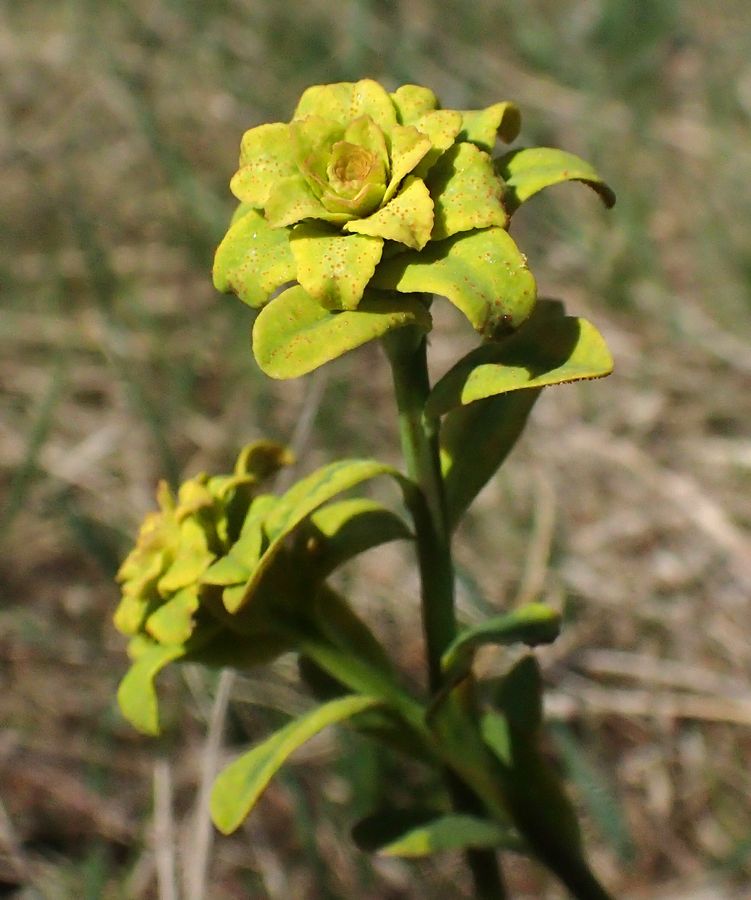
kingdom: Plantae
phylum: Tracheophyta
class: Magnoliopsida
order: Malpighiales
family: Euphorbiaceae
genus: Euphorbia
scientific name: Euphorbia
